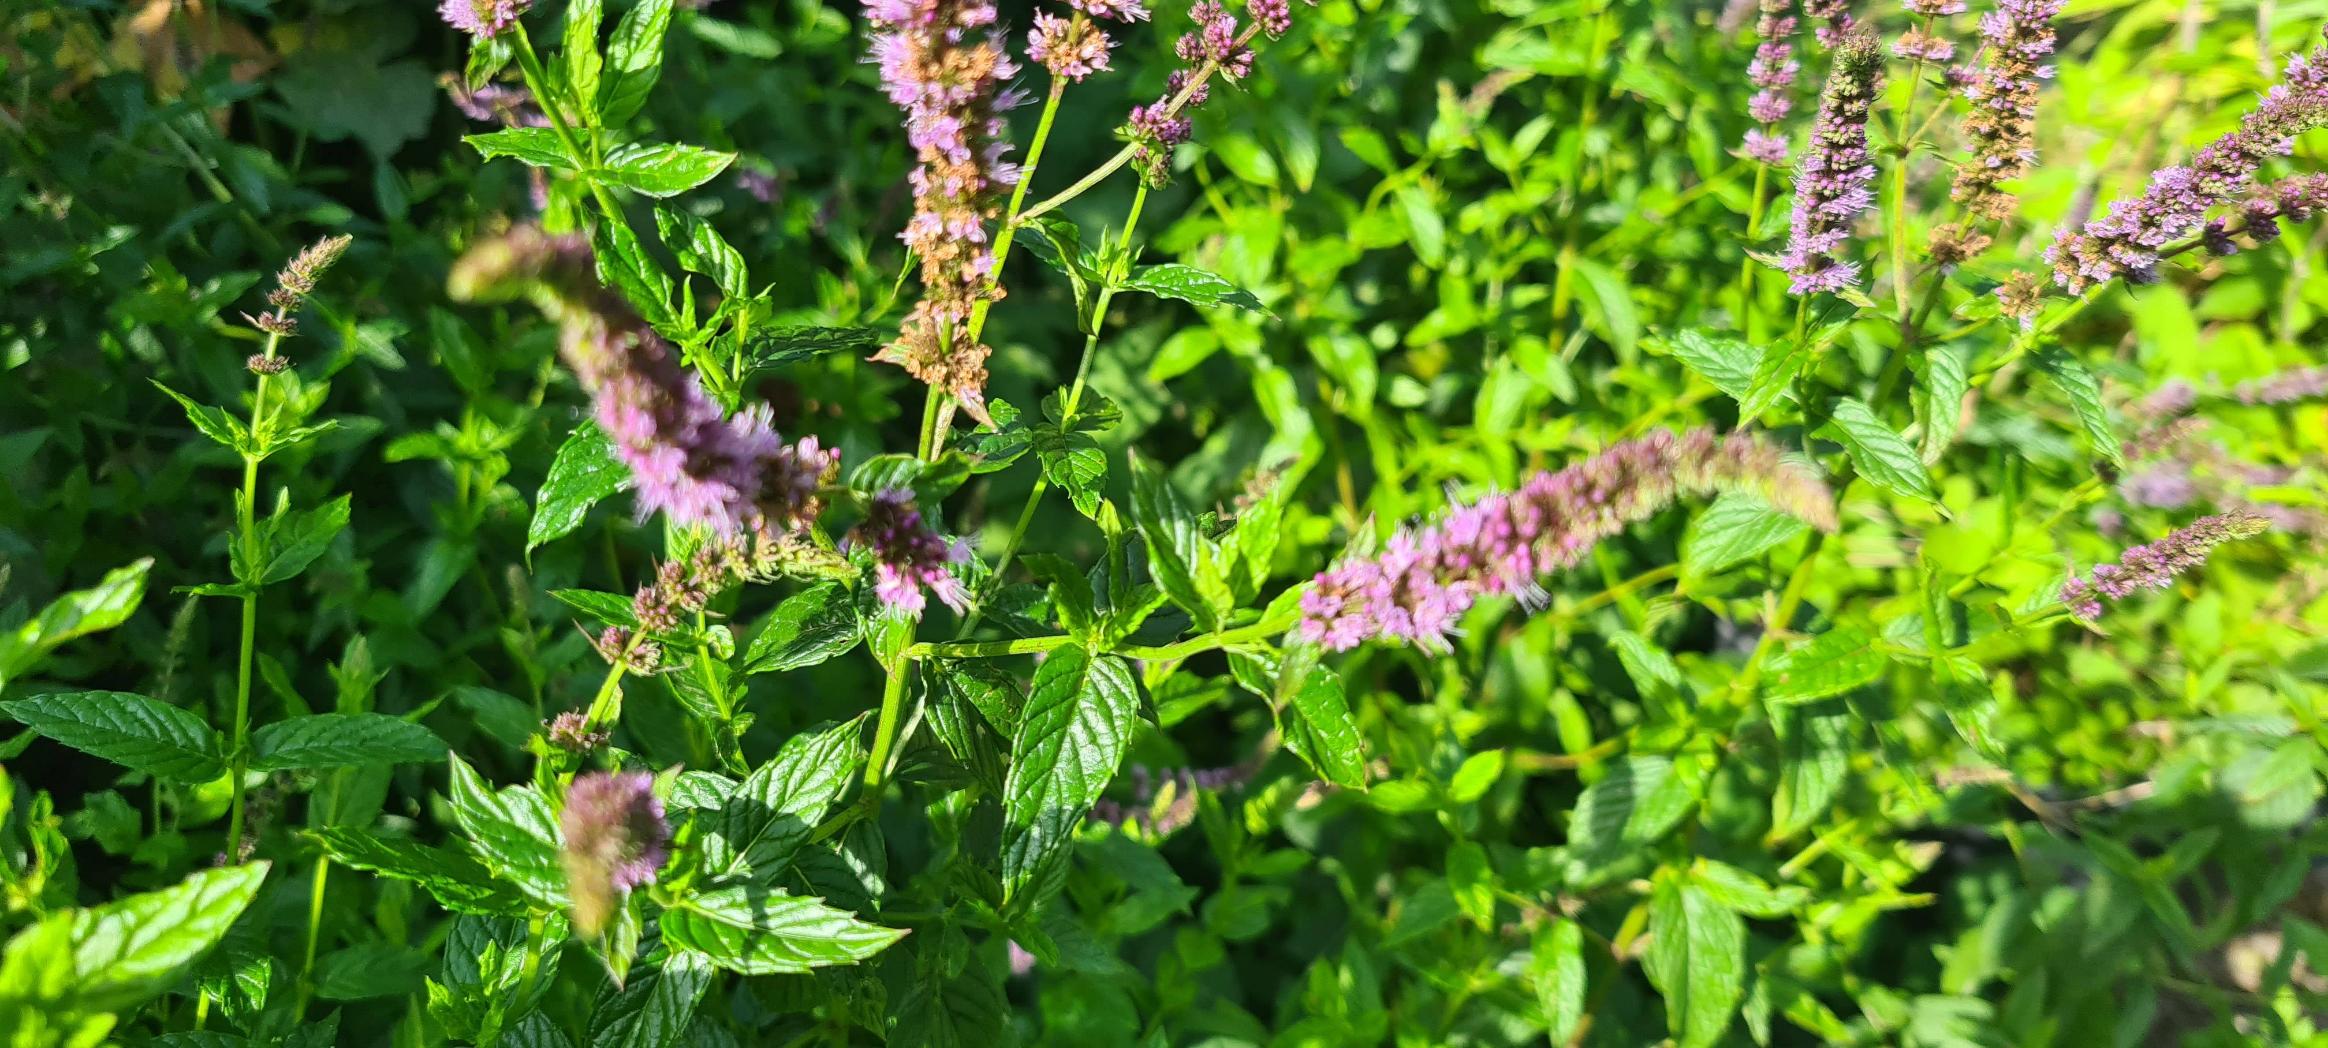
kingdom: Plantae
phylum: Tracheophyta
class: Magnoliopsida
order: Lamiales
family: Lamiaceae
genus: Mentha
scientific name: Mentha spicata
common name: Grøn mynte
